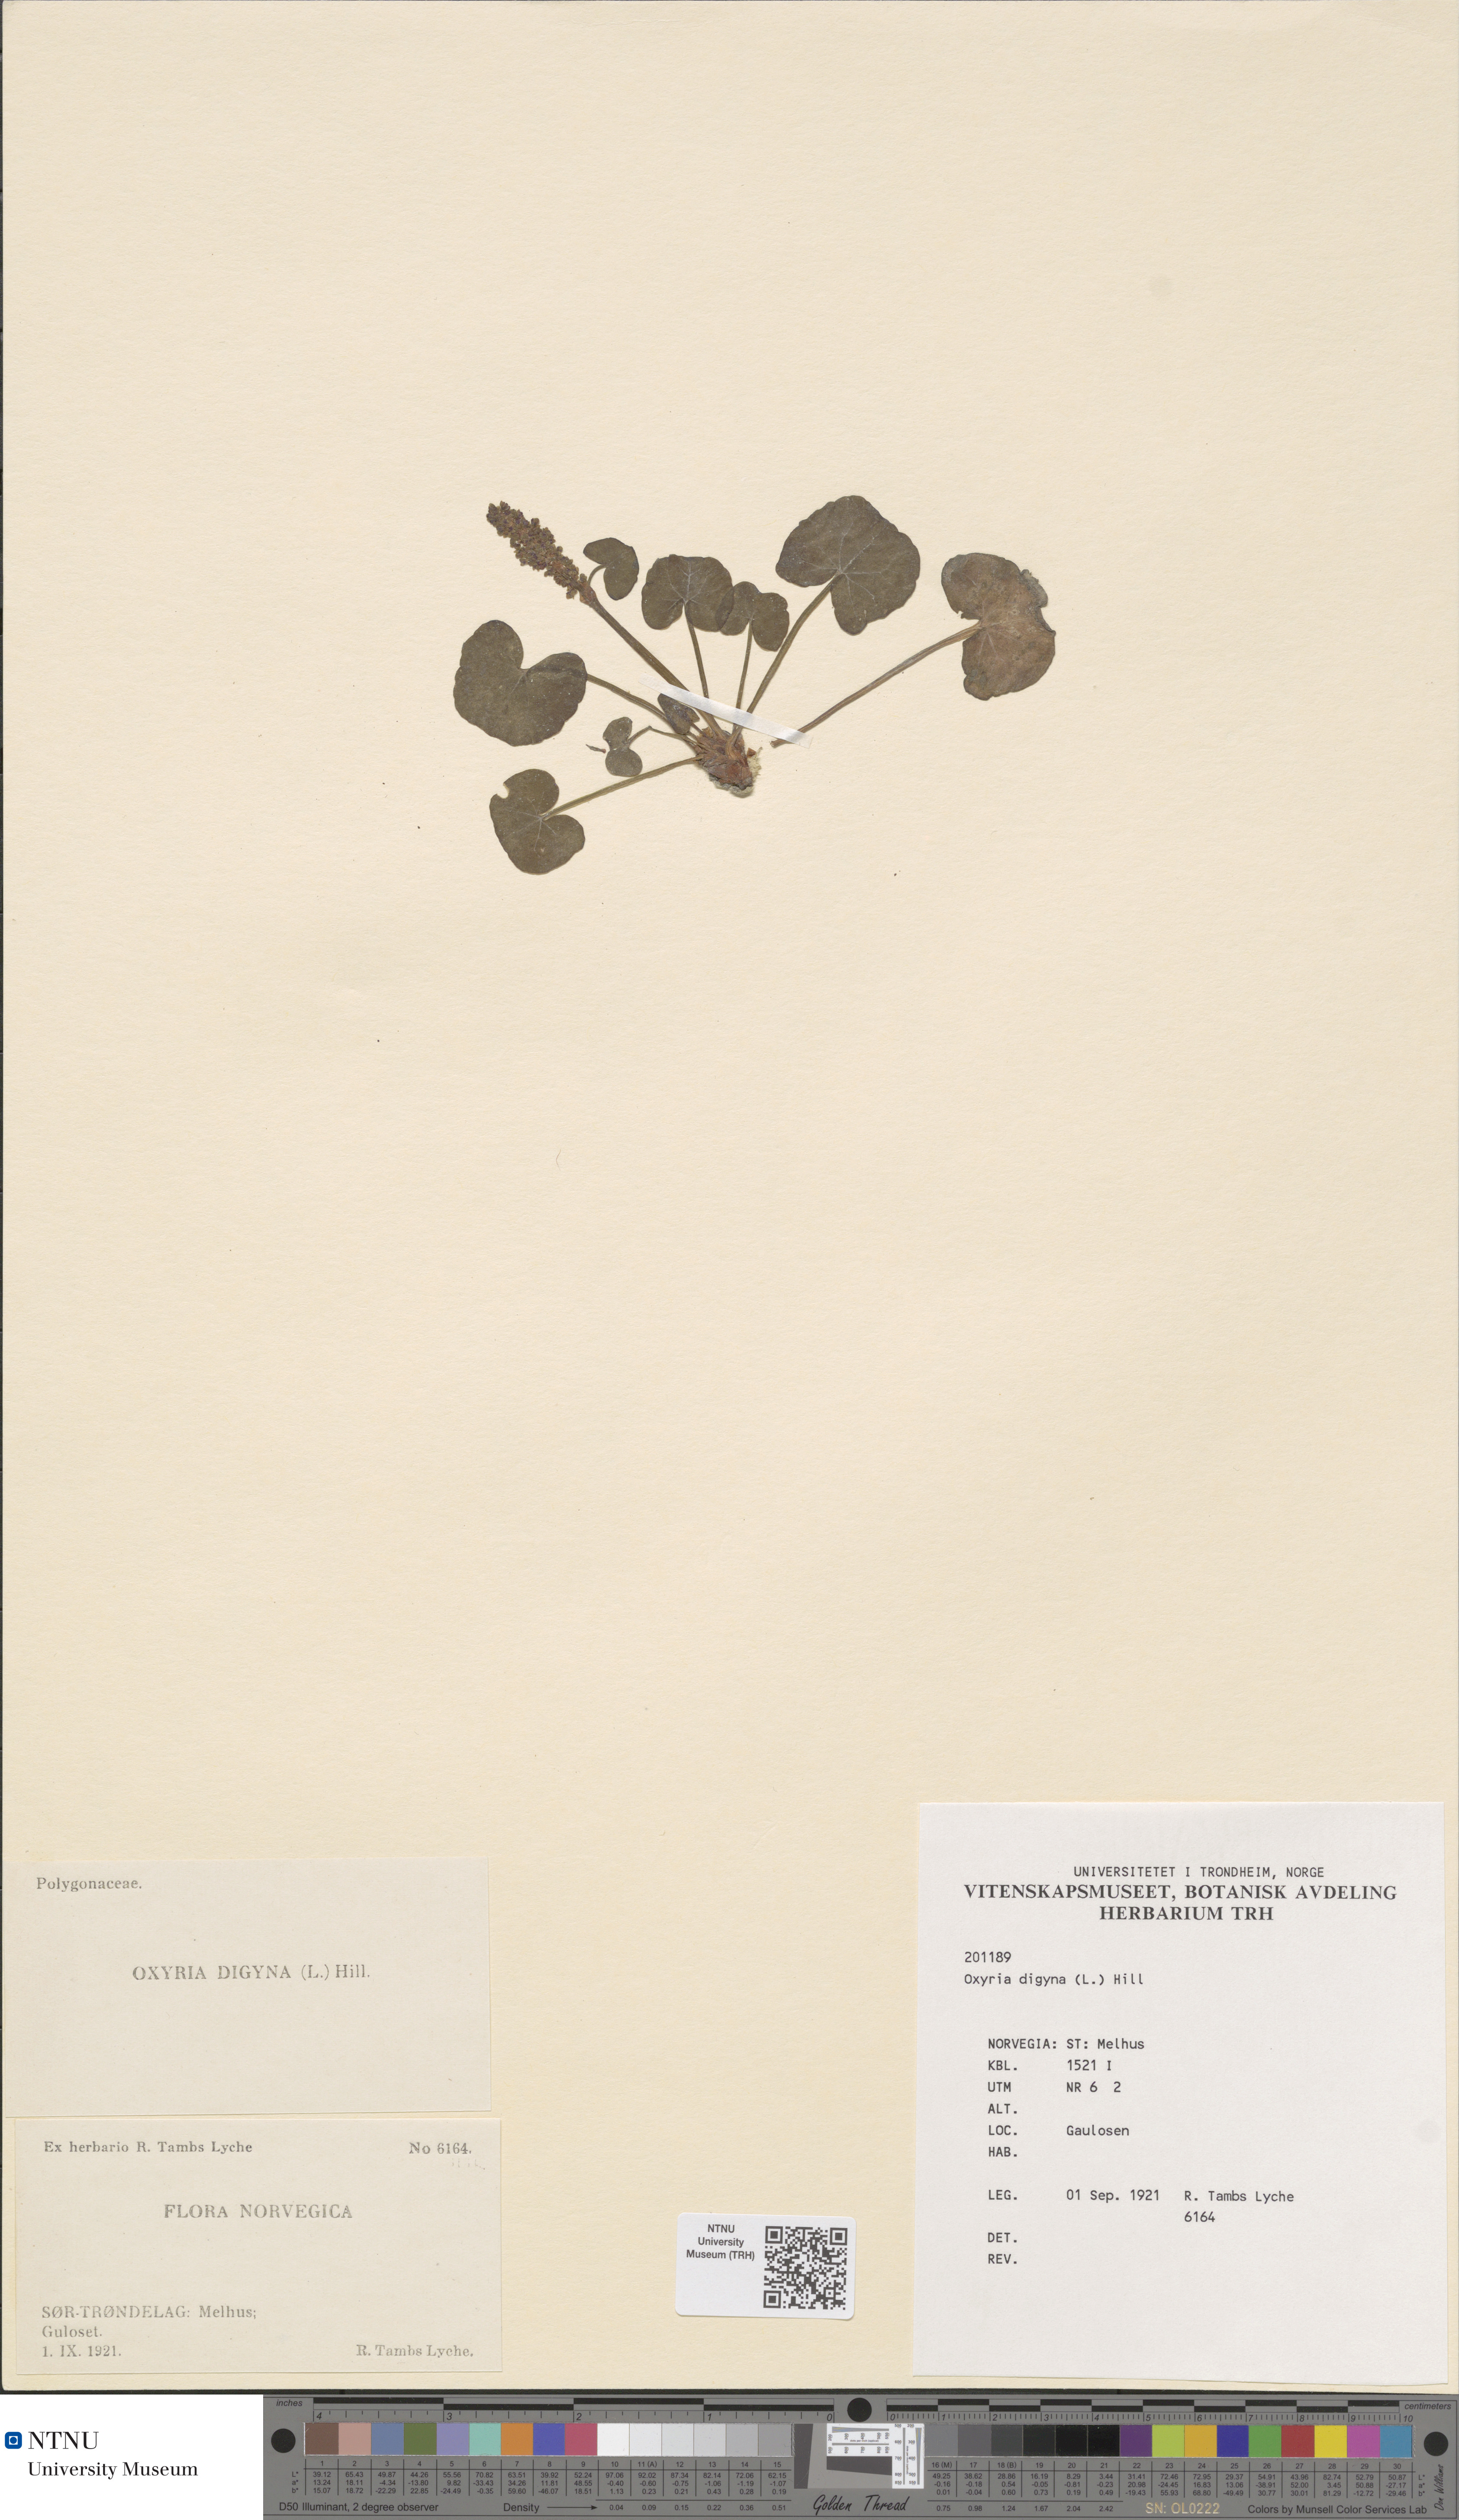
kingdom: Plantae
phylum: Tracheophyta
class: Magnoliopsida
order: Caryophyllales
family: Polygonaceae
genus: Oxyria
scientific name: Oxyria digyna
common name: Alpine mountain-sorrel
